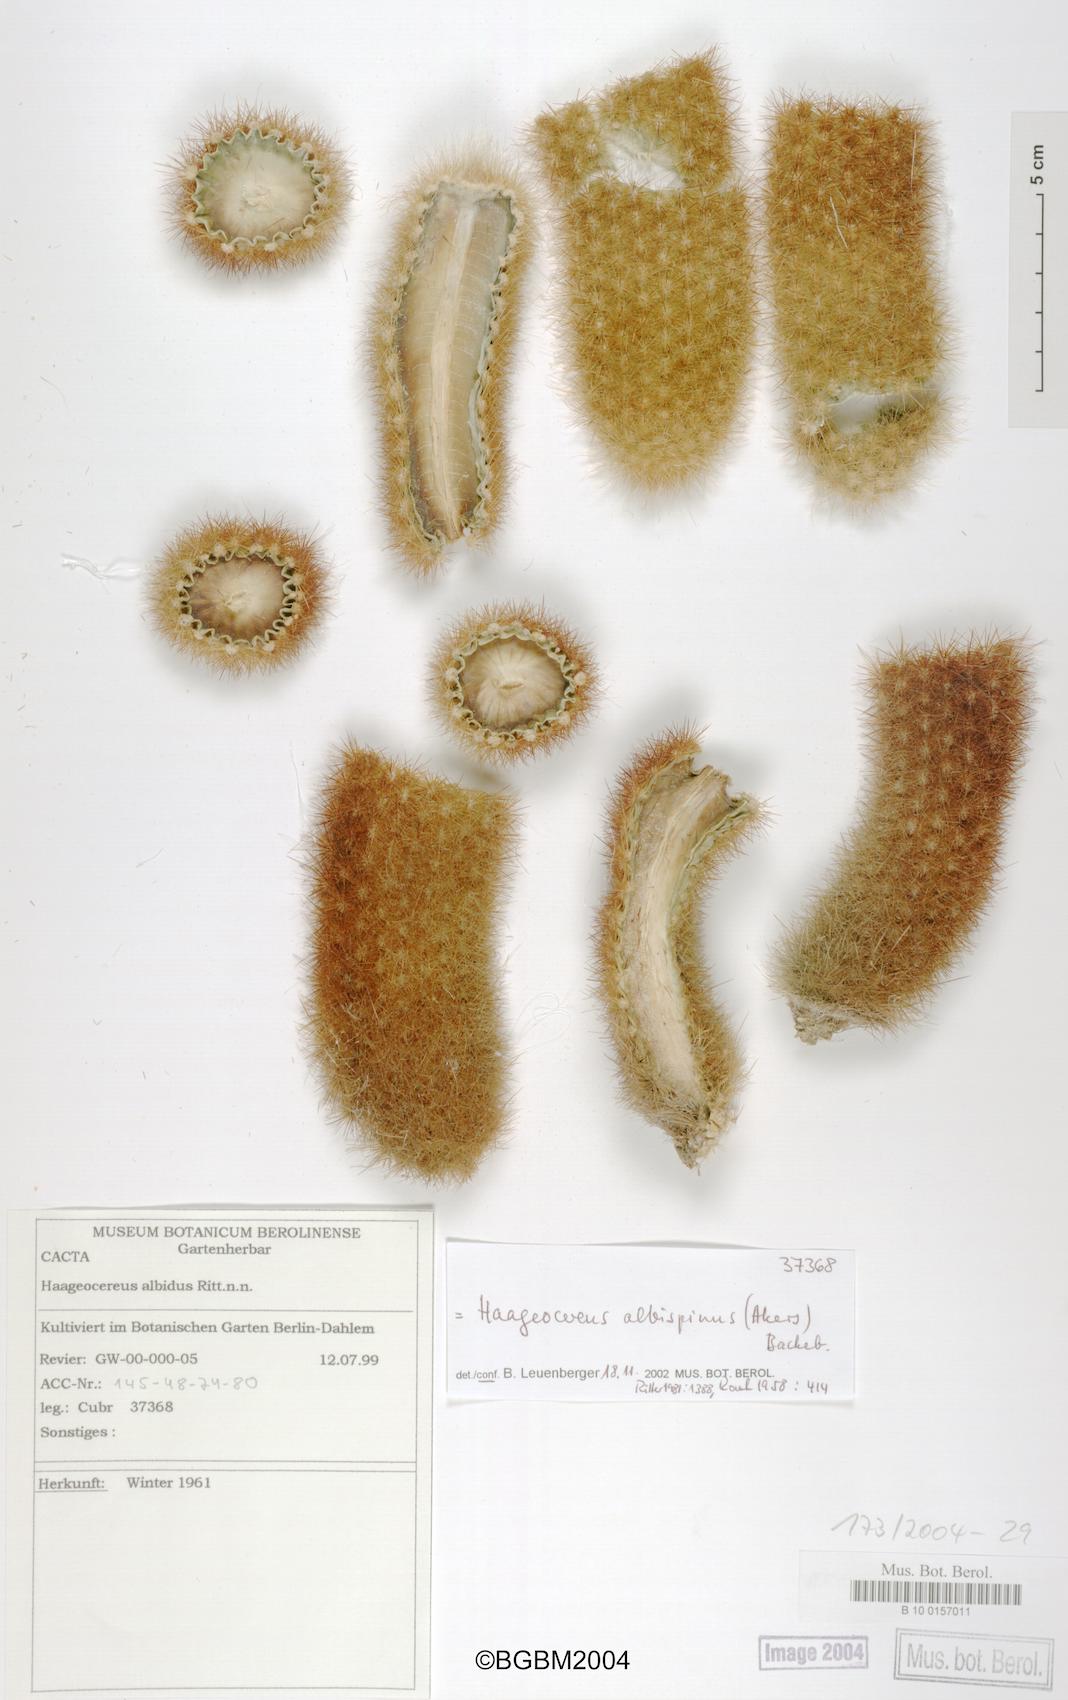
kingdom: Plantae
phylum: Tracheophyta
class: Magnoliopsida
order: Caryophyllales
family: Cactaceae
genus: Haageocereus
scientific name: Haageocereus pseudomelanostele
